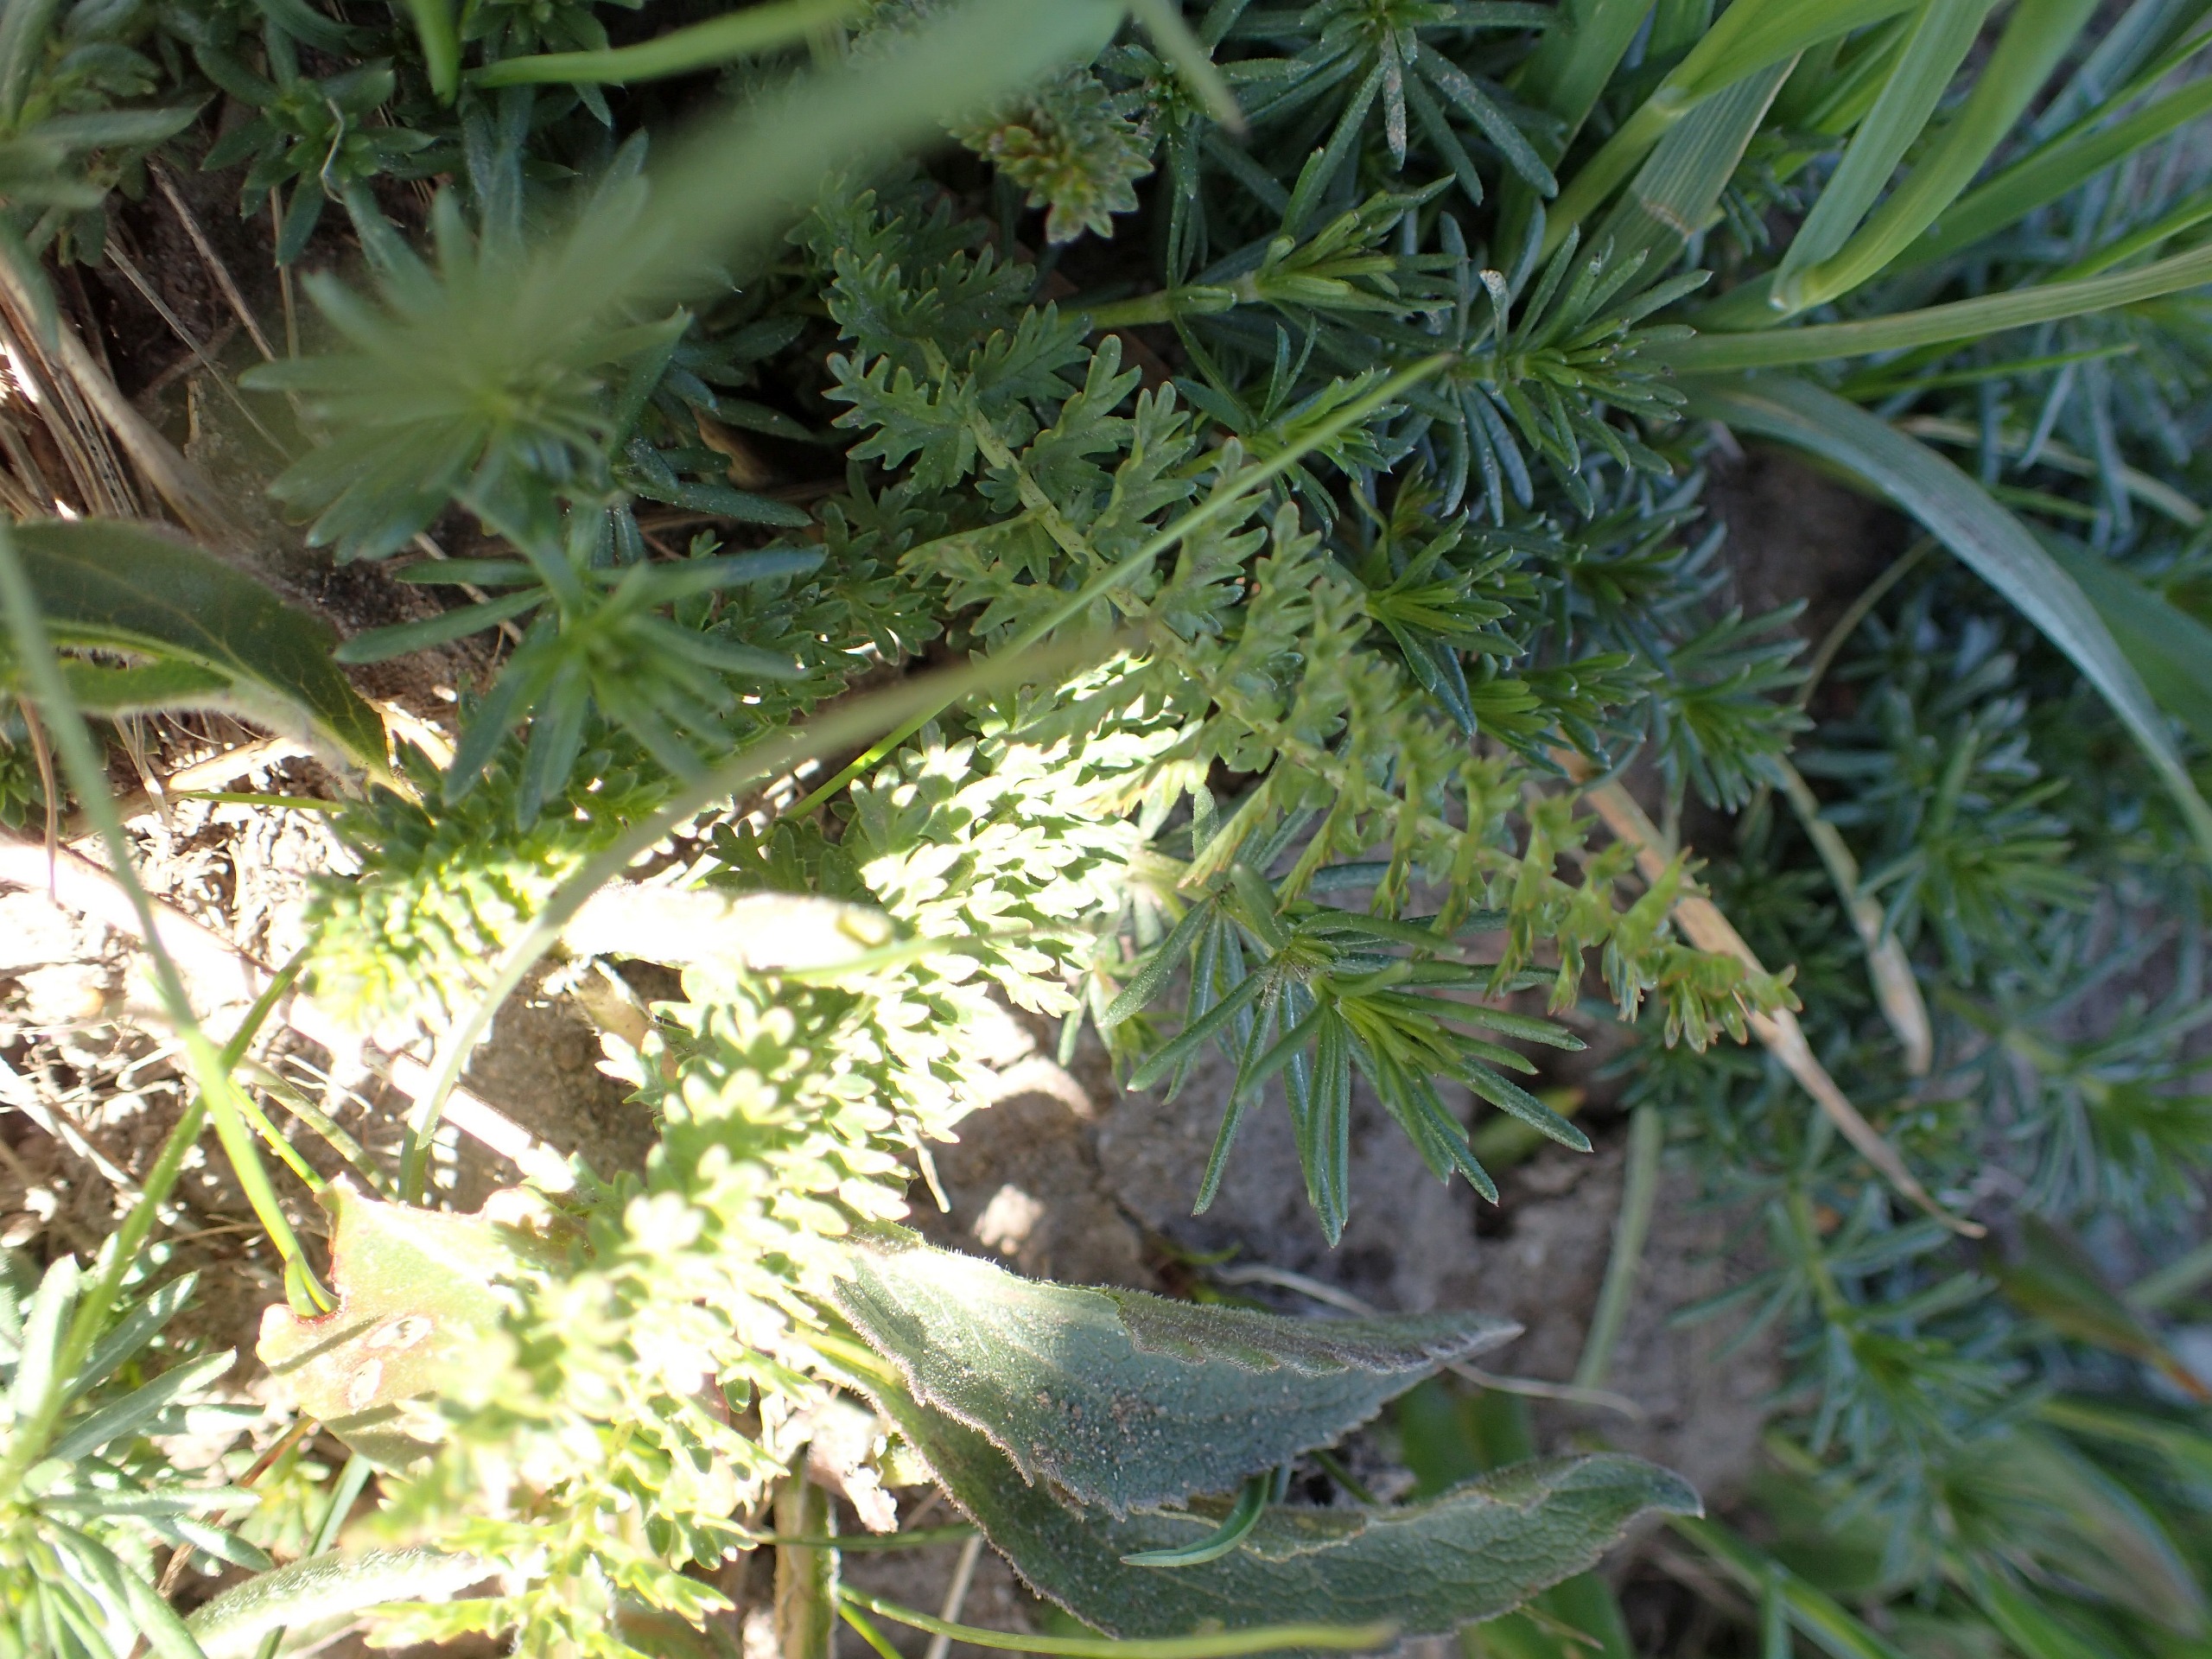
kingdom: Plantae
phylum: Tracheophyta
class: Magnoliopsida
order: Rosales
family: Rosaceae
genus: Filipendula
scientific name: Filipendula vulgaris
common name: Knoldet mjødurt
